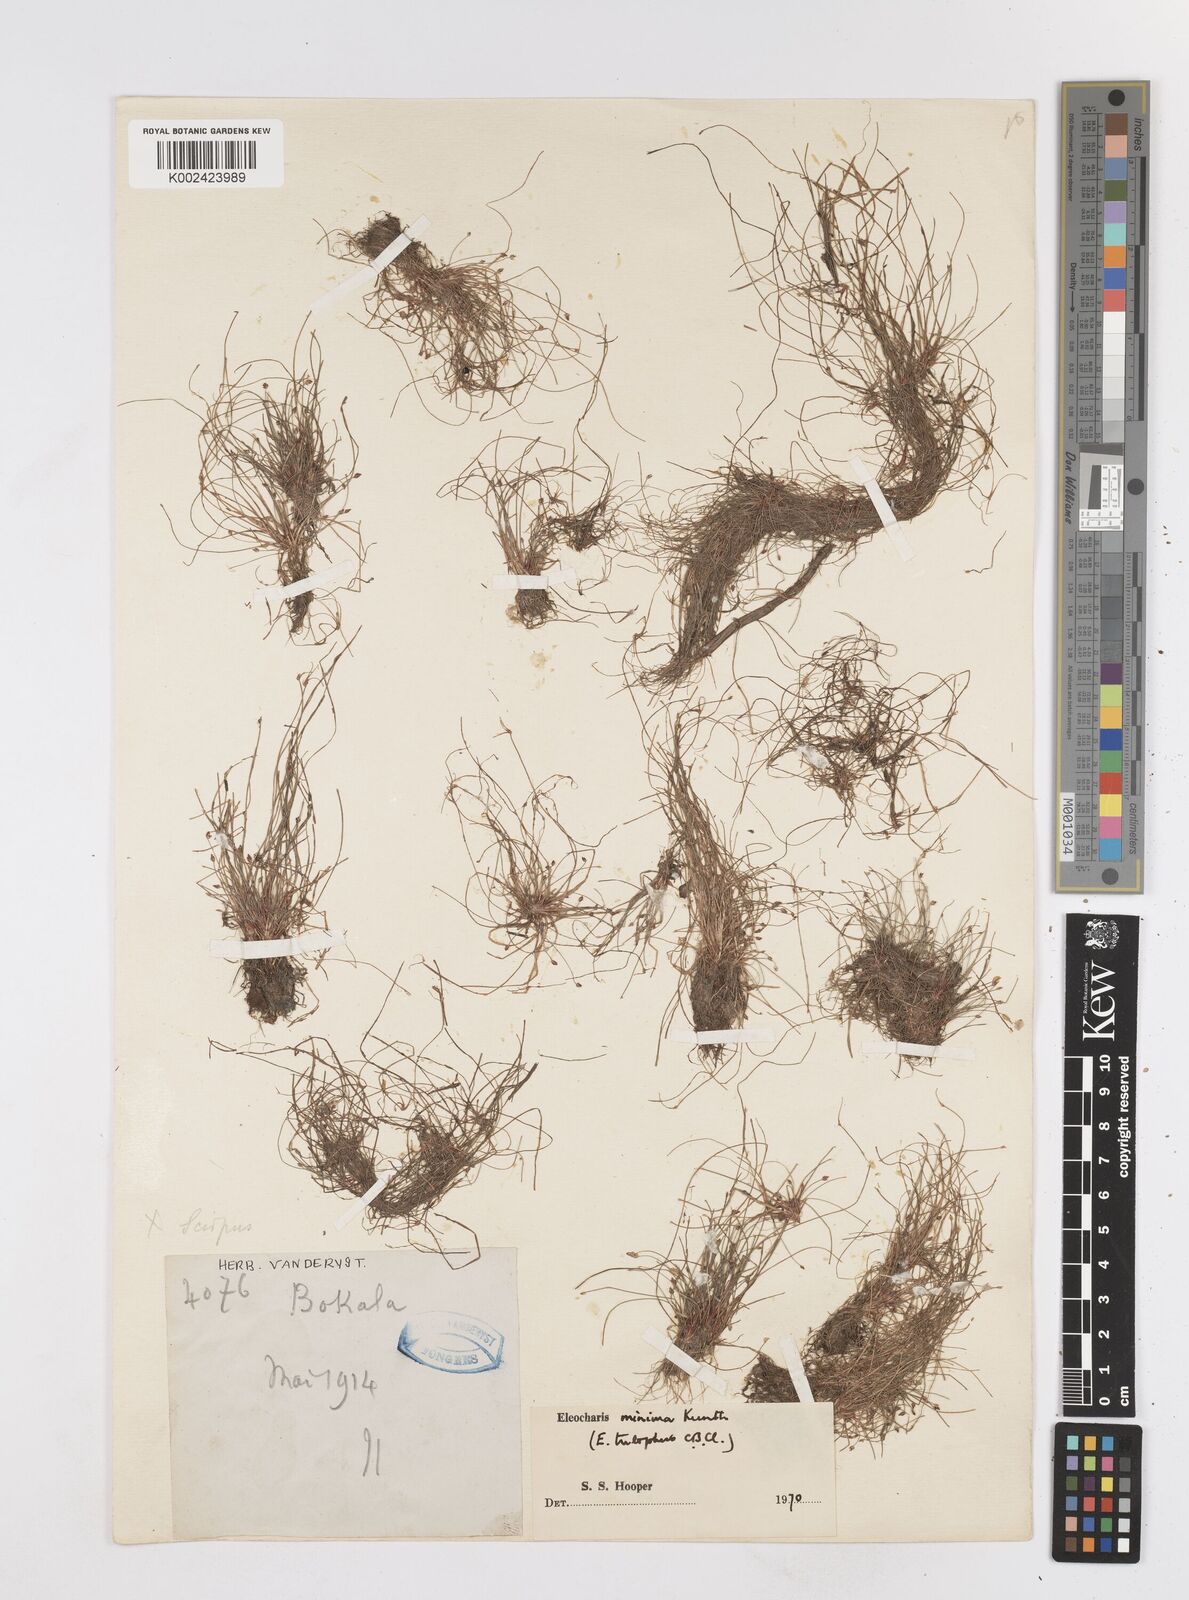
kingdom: Plantae
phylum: Tracheophyta
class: Liliopsida
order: Poales
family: Cyperaceae
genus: Eleocharis
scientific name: Eleocharis trilophus
